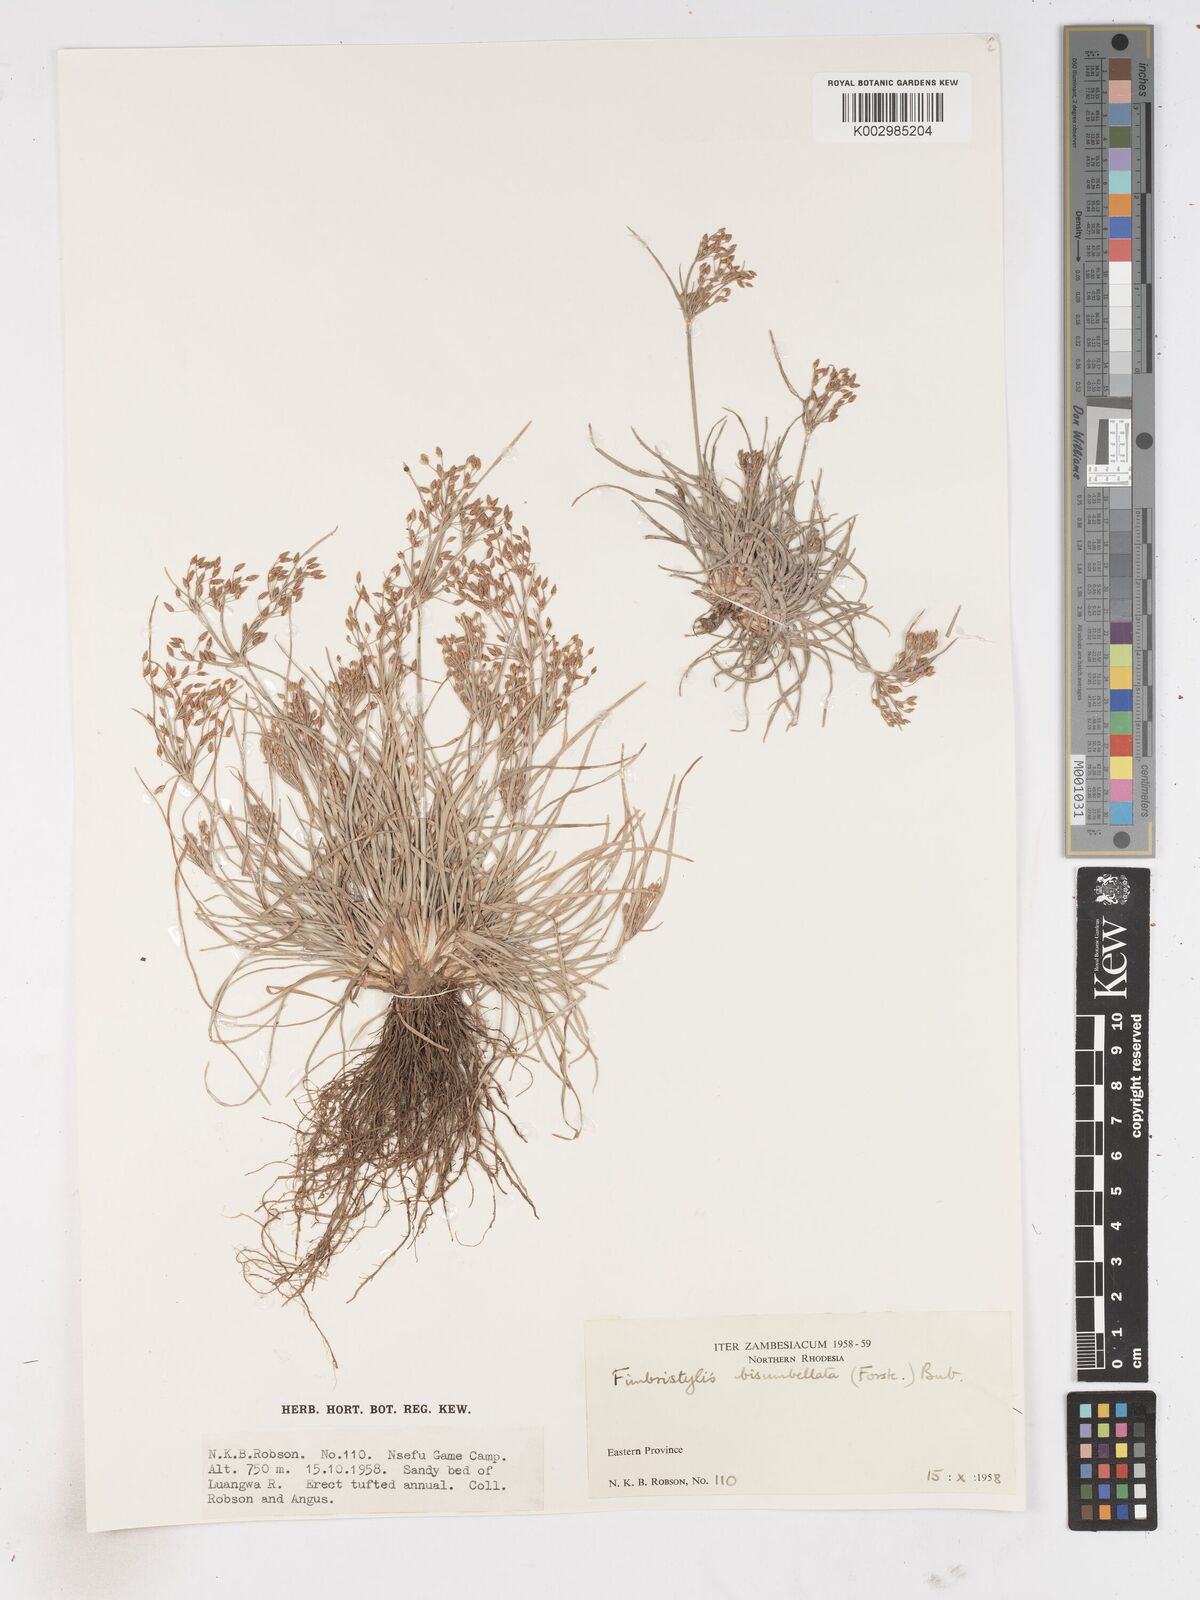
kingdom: Plantae
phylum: Tracheophyta
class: Liliopsida
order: Poales
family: Cyperaceae
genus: Fimbristylis
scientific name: Fimbristylis bisumbellata
